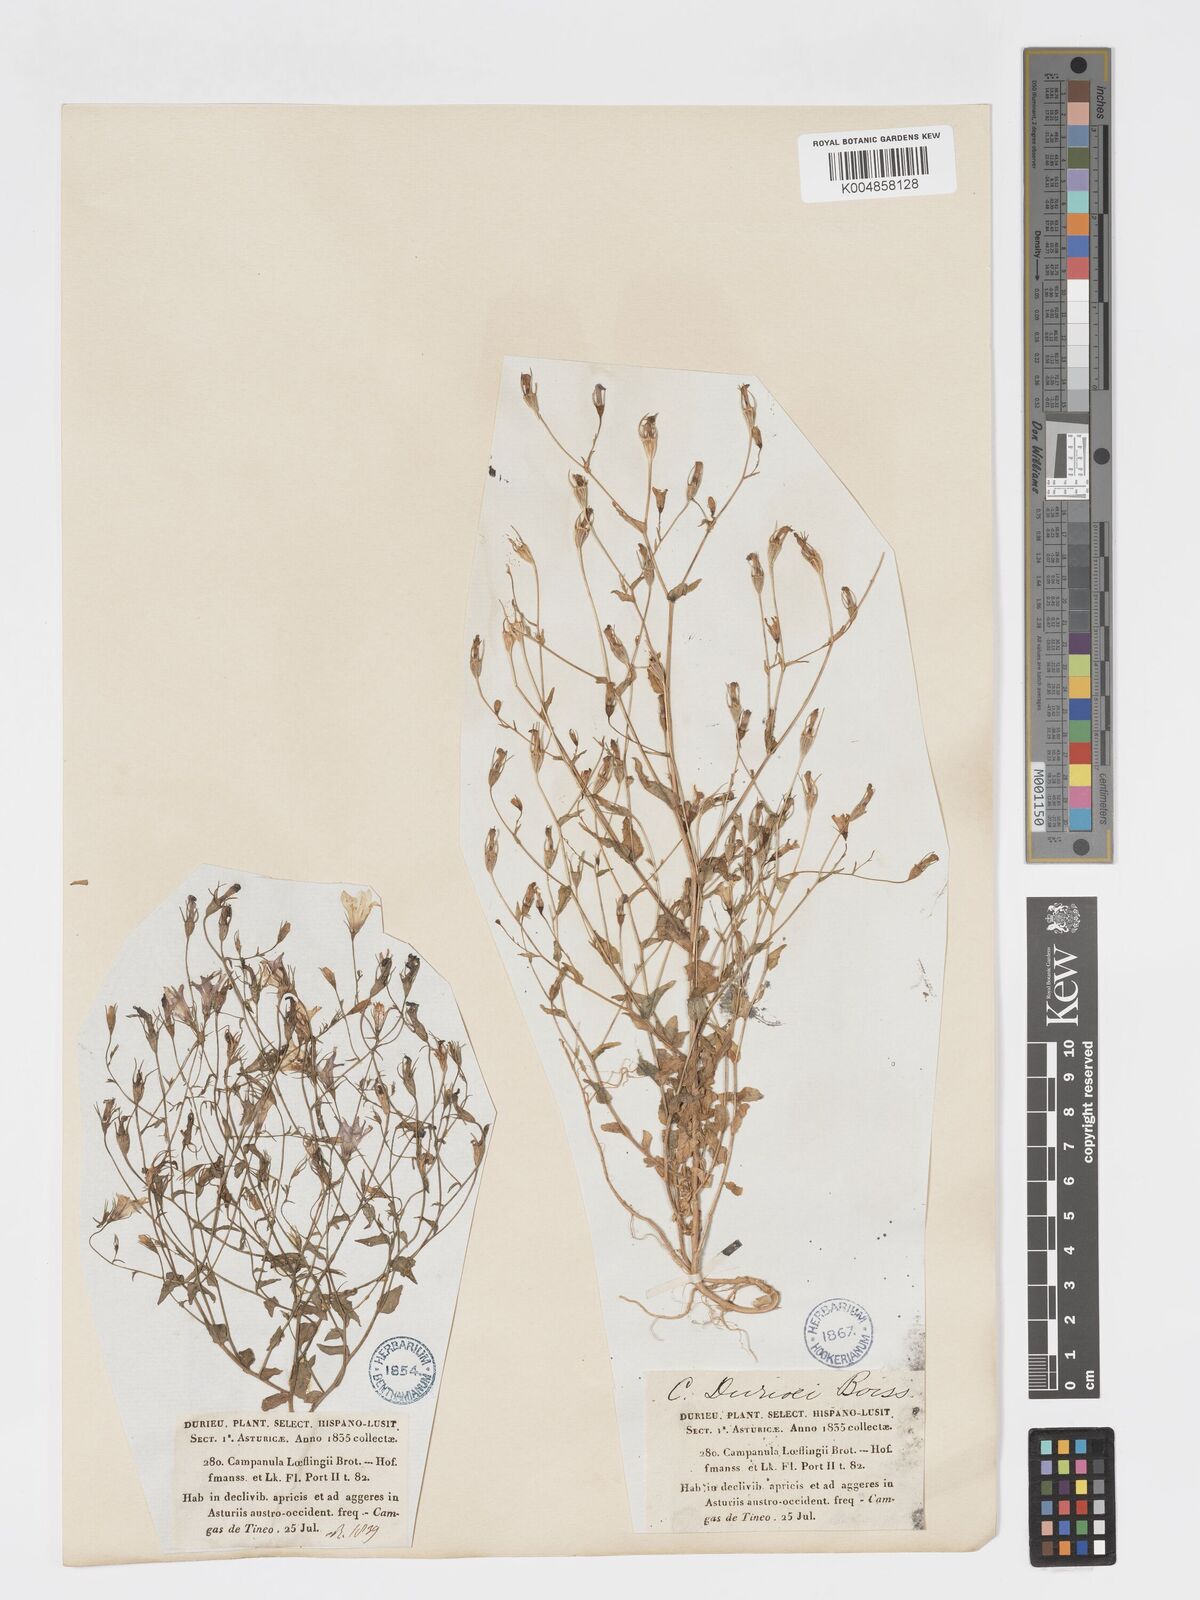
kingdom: Plantae
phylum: Tracheophyta
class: Magnoliopsida
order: Asterales
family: Campanulaceae
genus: Campanula
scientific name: Campanula lusitanica
